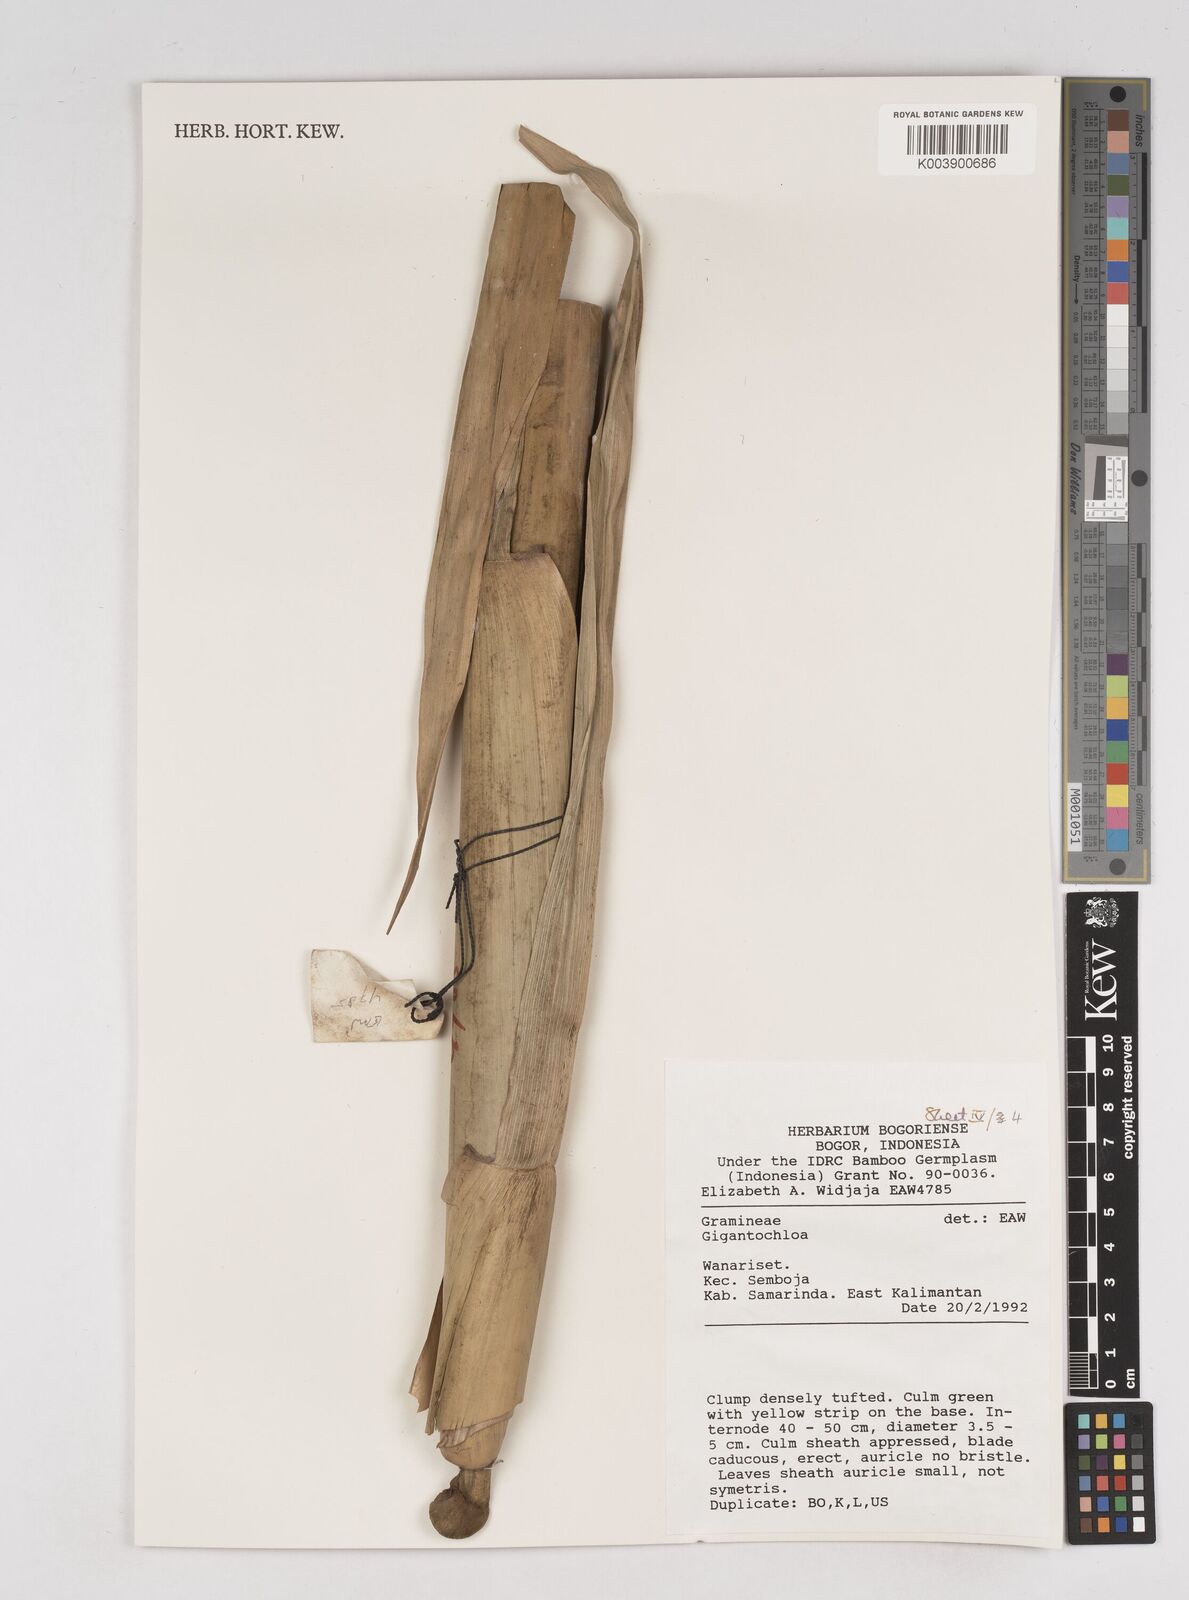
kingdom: Plantae
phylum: Tracheophyta
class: Liliopsida
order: Poales
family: Poaceae
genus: Gigantochloa
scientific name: Gigantochloa
